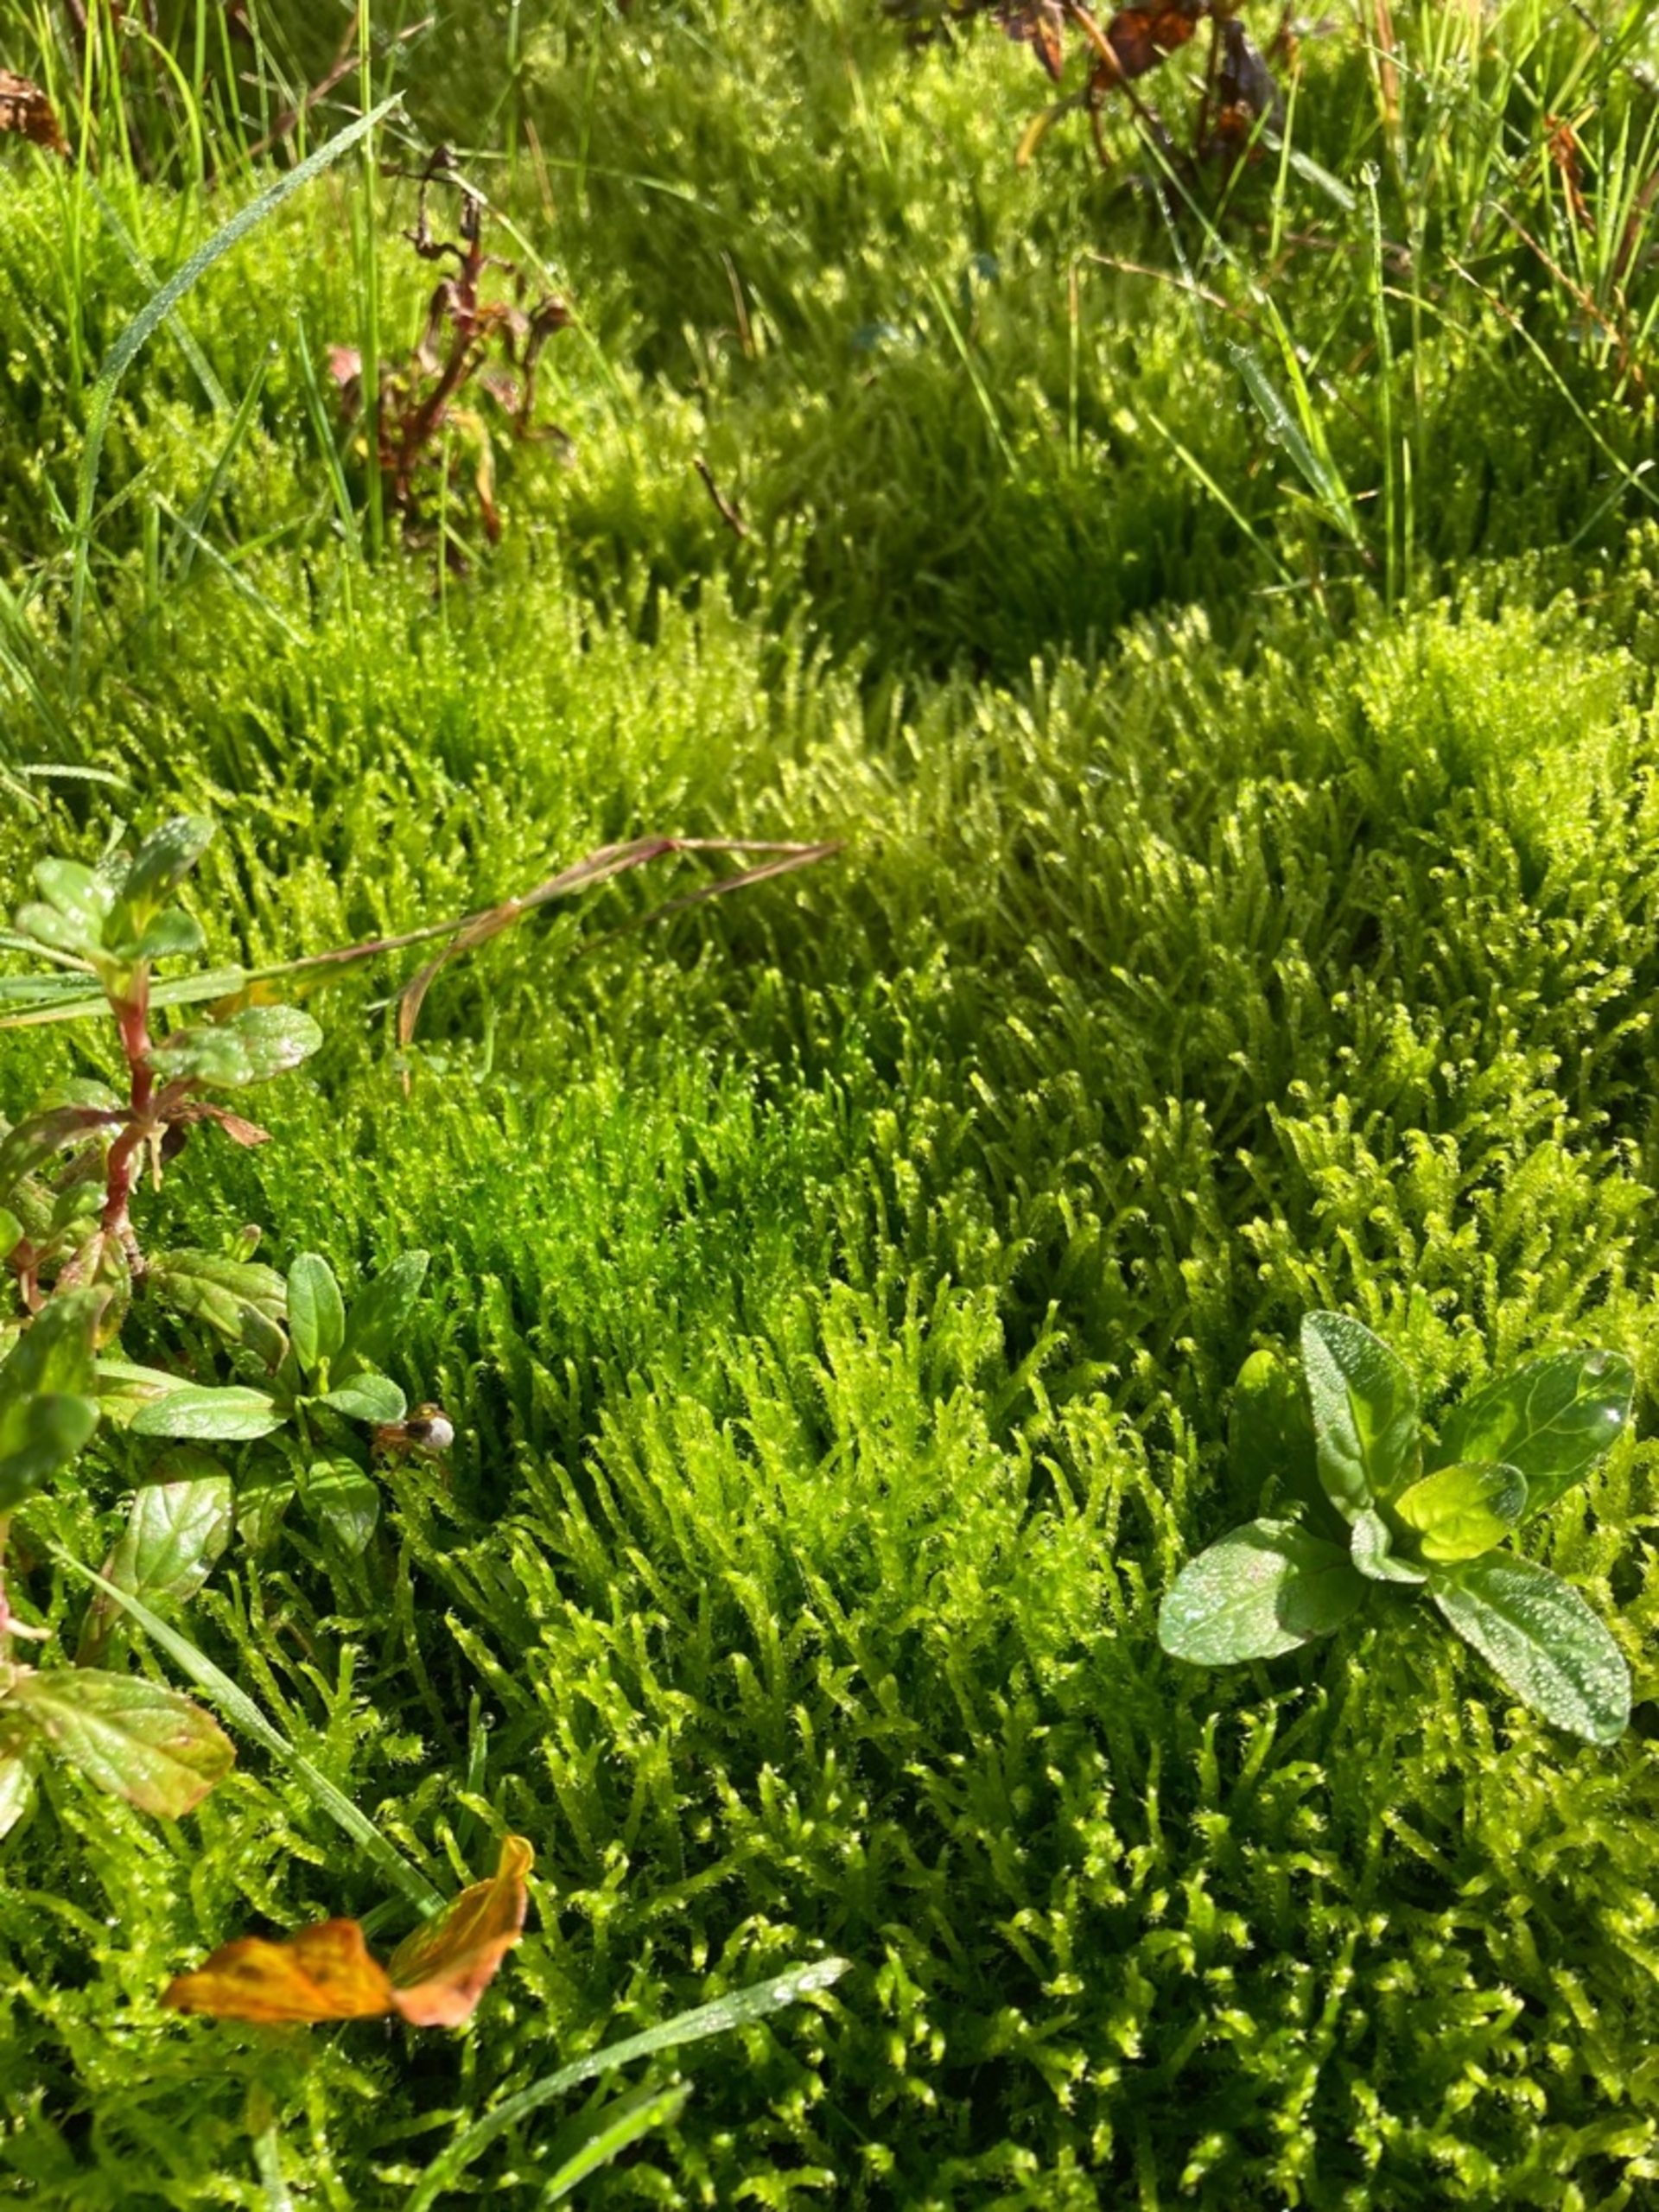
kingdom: Plantae
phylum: Bryophyta
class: Bryopsida
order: Hypnales
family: Amblystegiaceae
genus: Drepanocladus
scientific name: Drepanocladus aduncus
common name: Kær-seglmos
